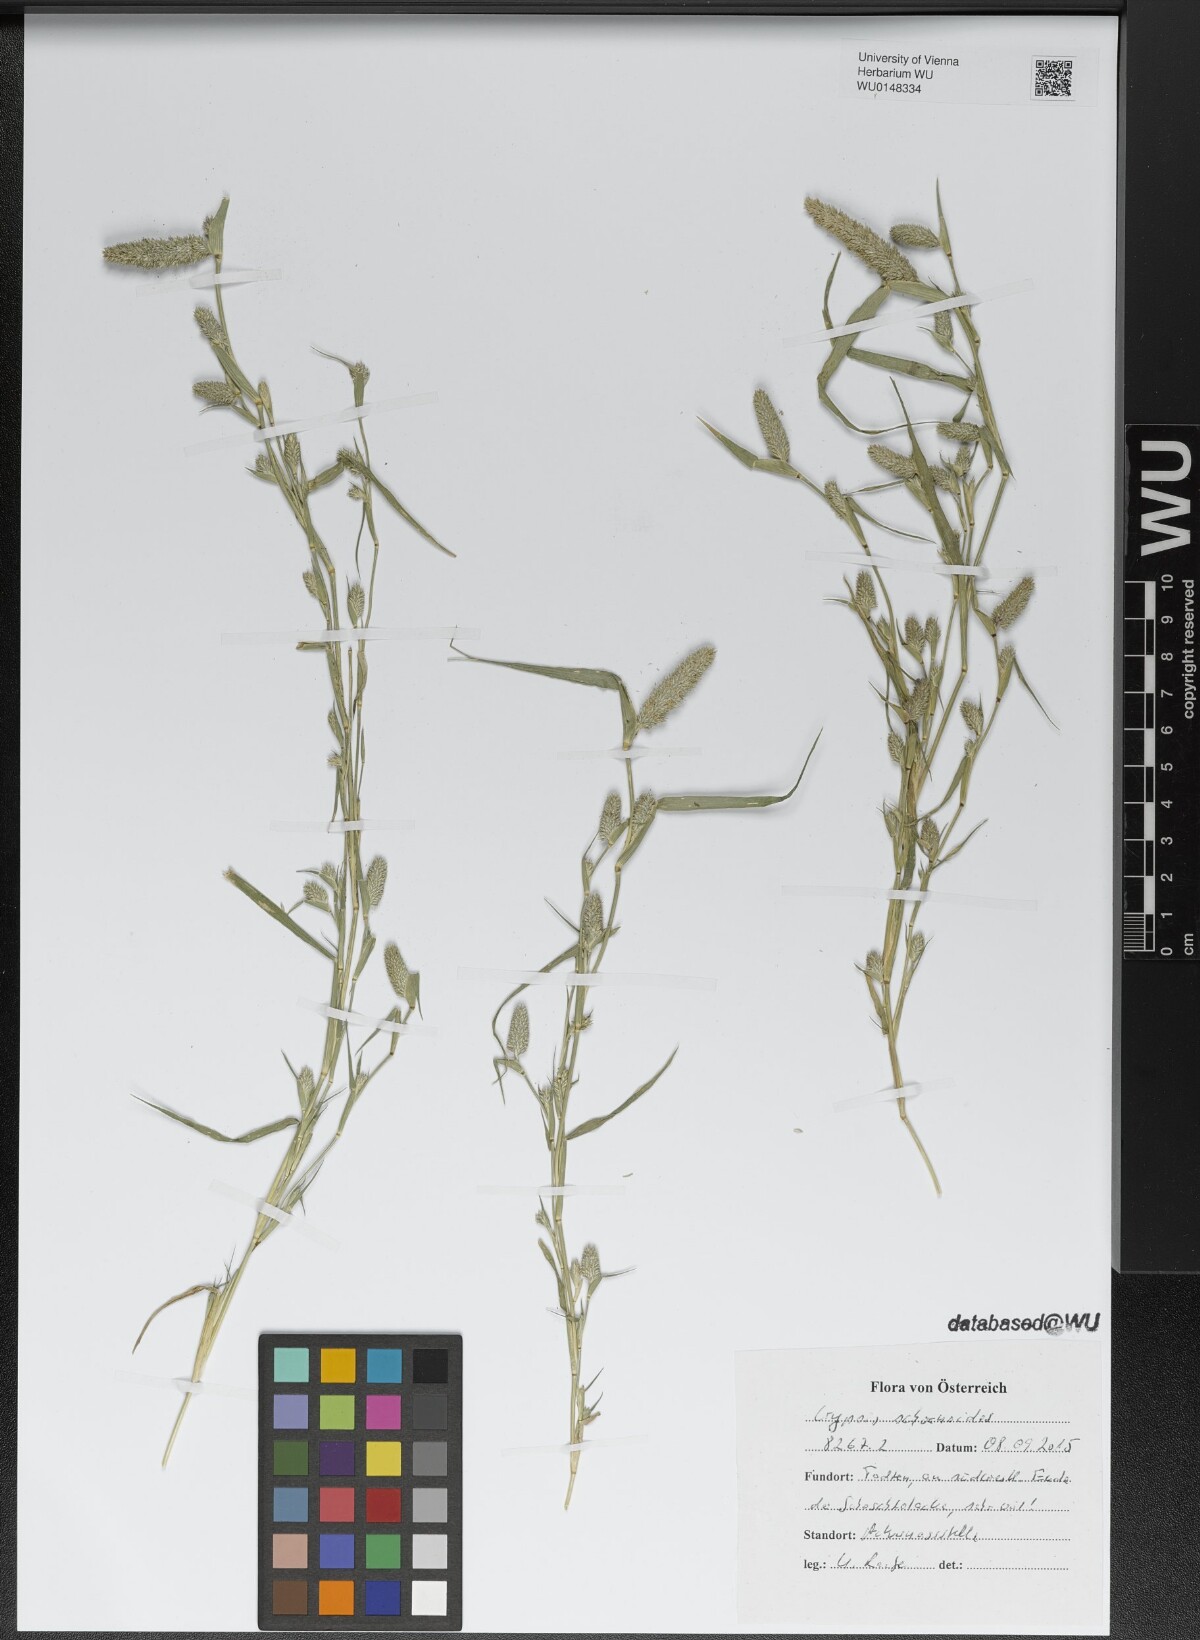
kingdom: Plantae
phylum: Tracheophyta
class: Liliopsida
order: Poales
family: Poaceae
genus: Sporobolus
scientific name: Sporobolus schoenoides
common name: Rush-like timothy
